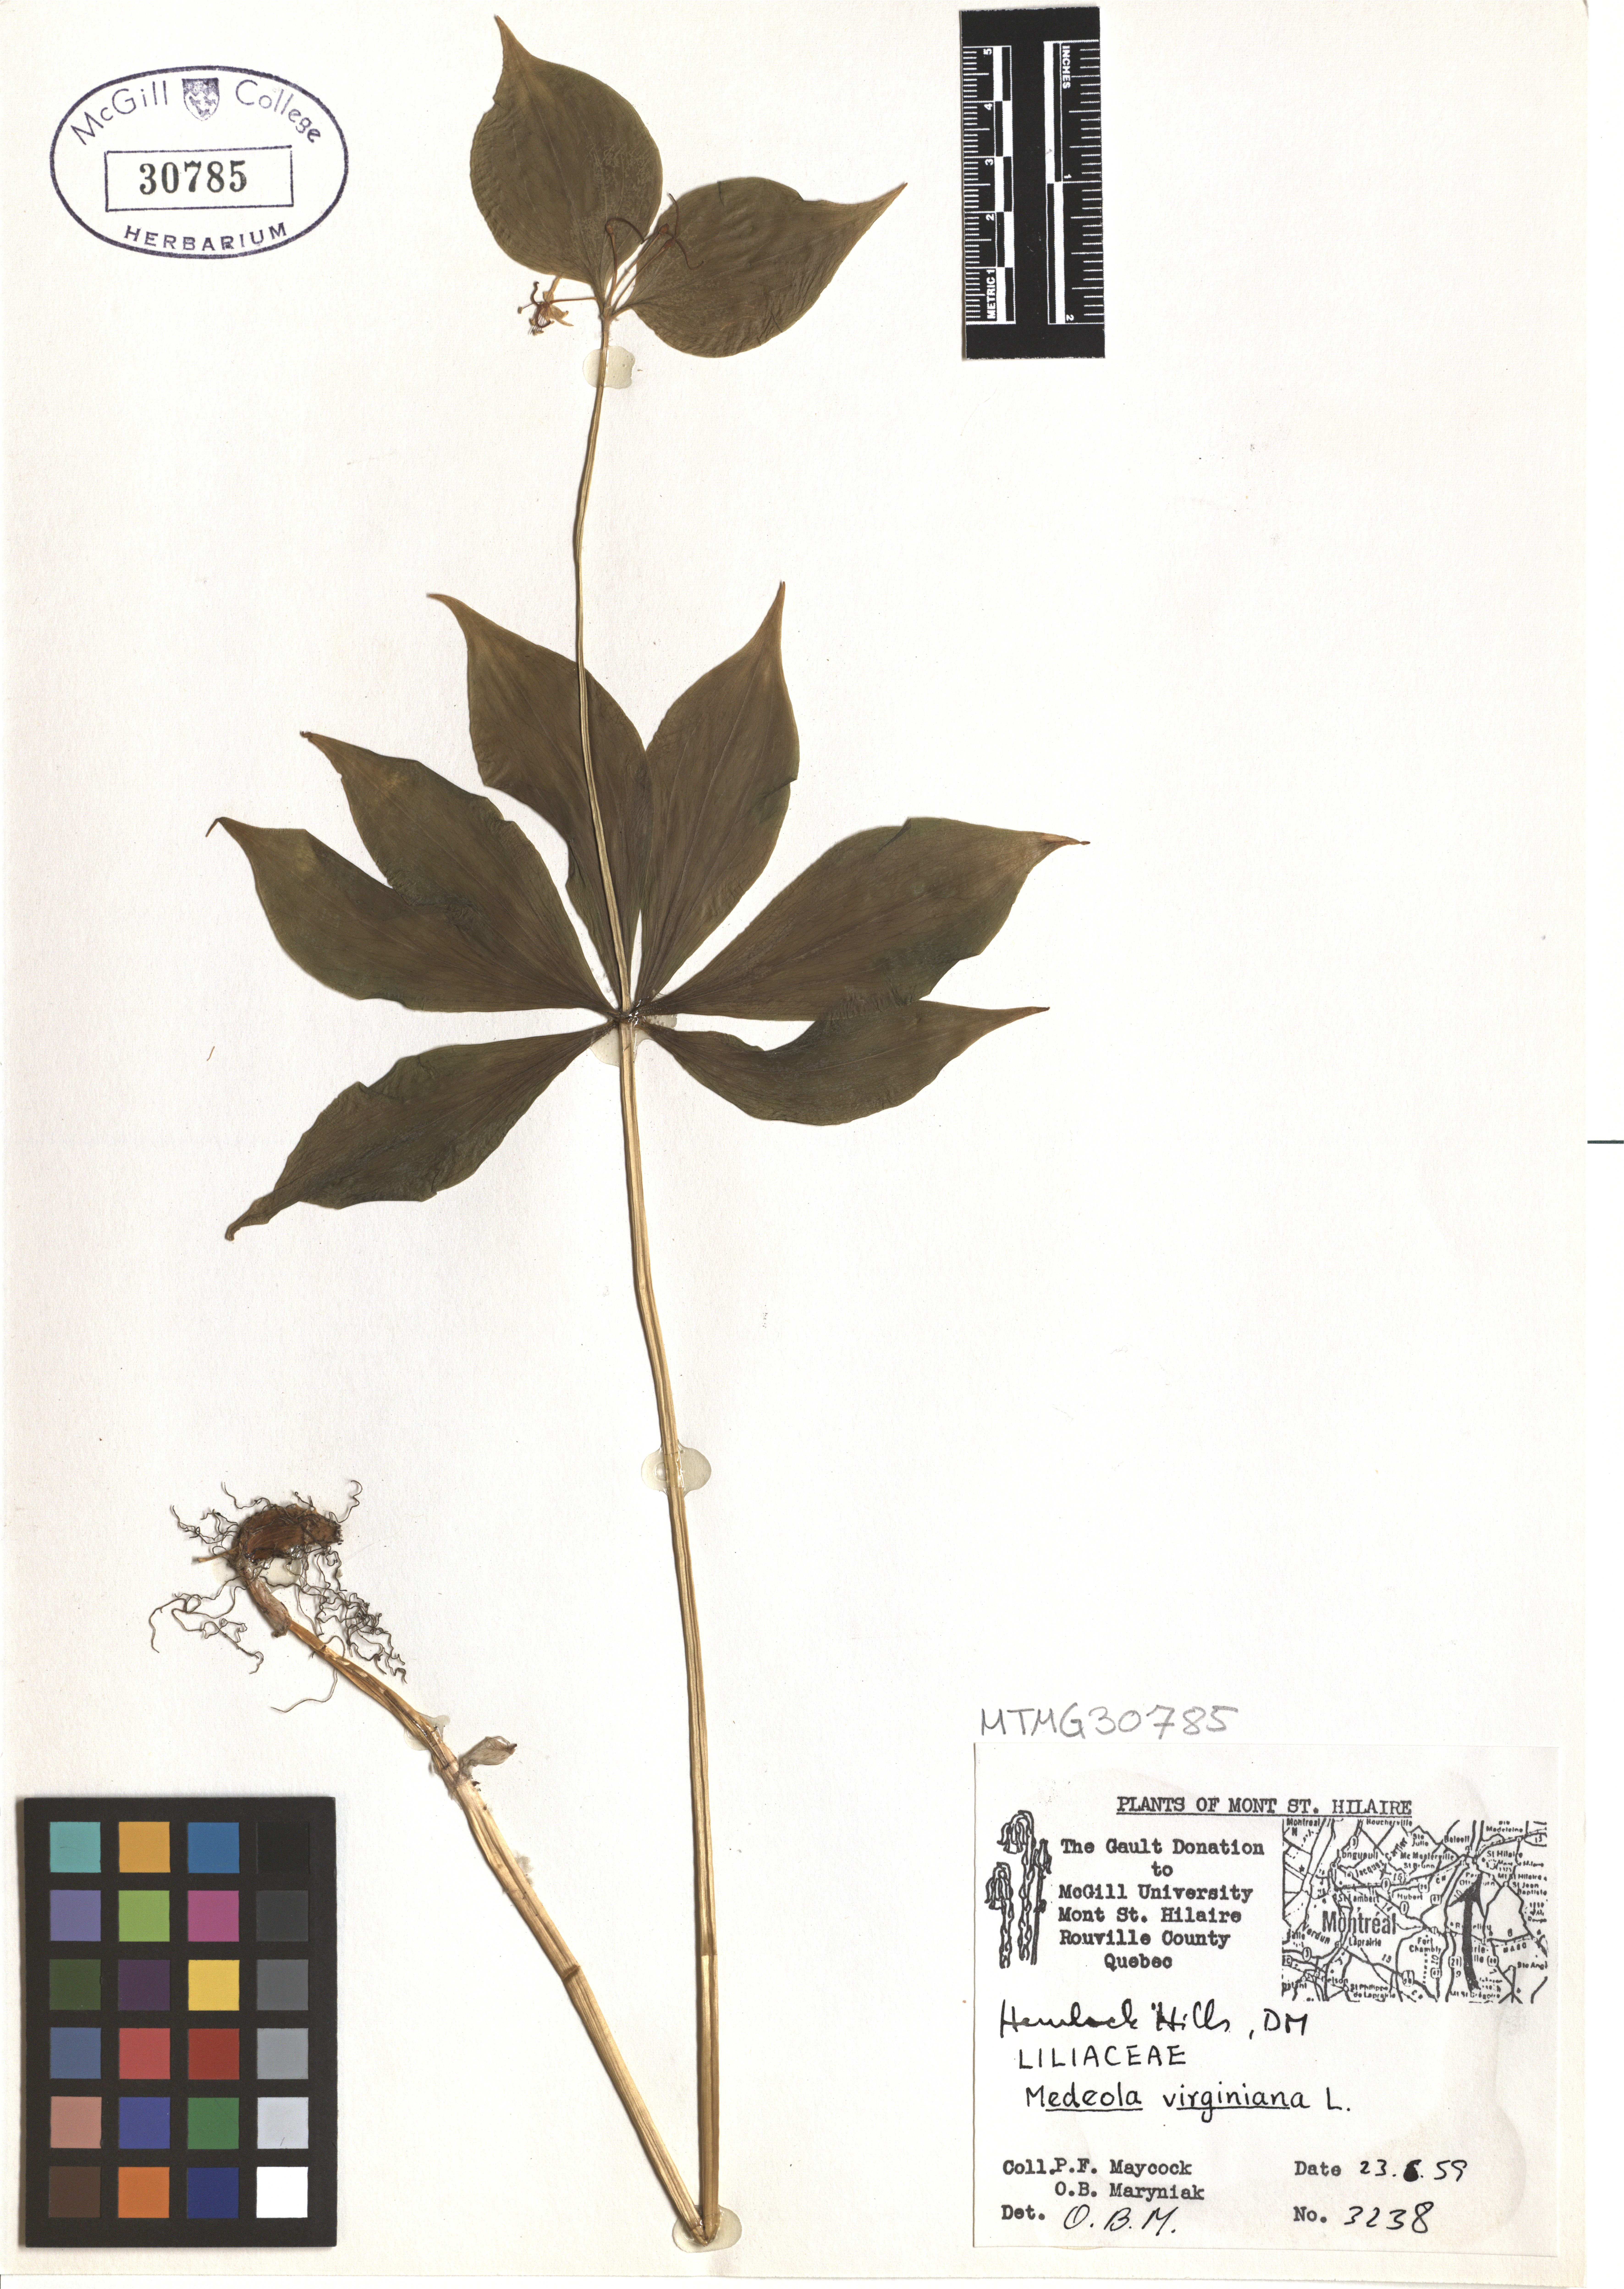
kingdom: Plantae
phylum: Tracheophyta
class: Liliopsida
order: Liliales
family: Liliaceae
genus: Medeola
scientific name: Medeola virginiana
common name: Indian cucumber-root
